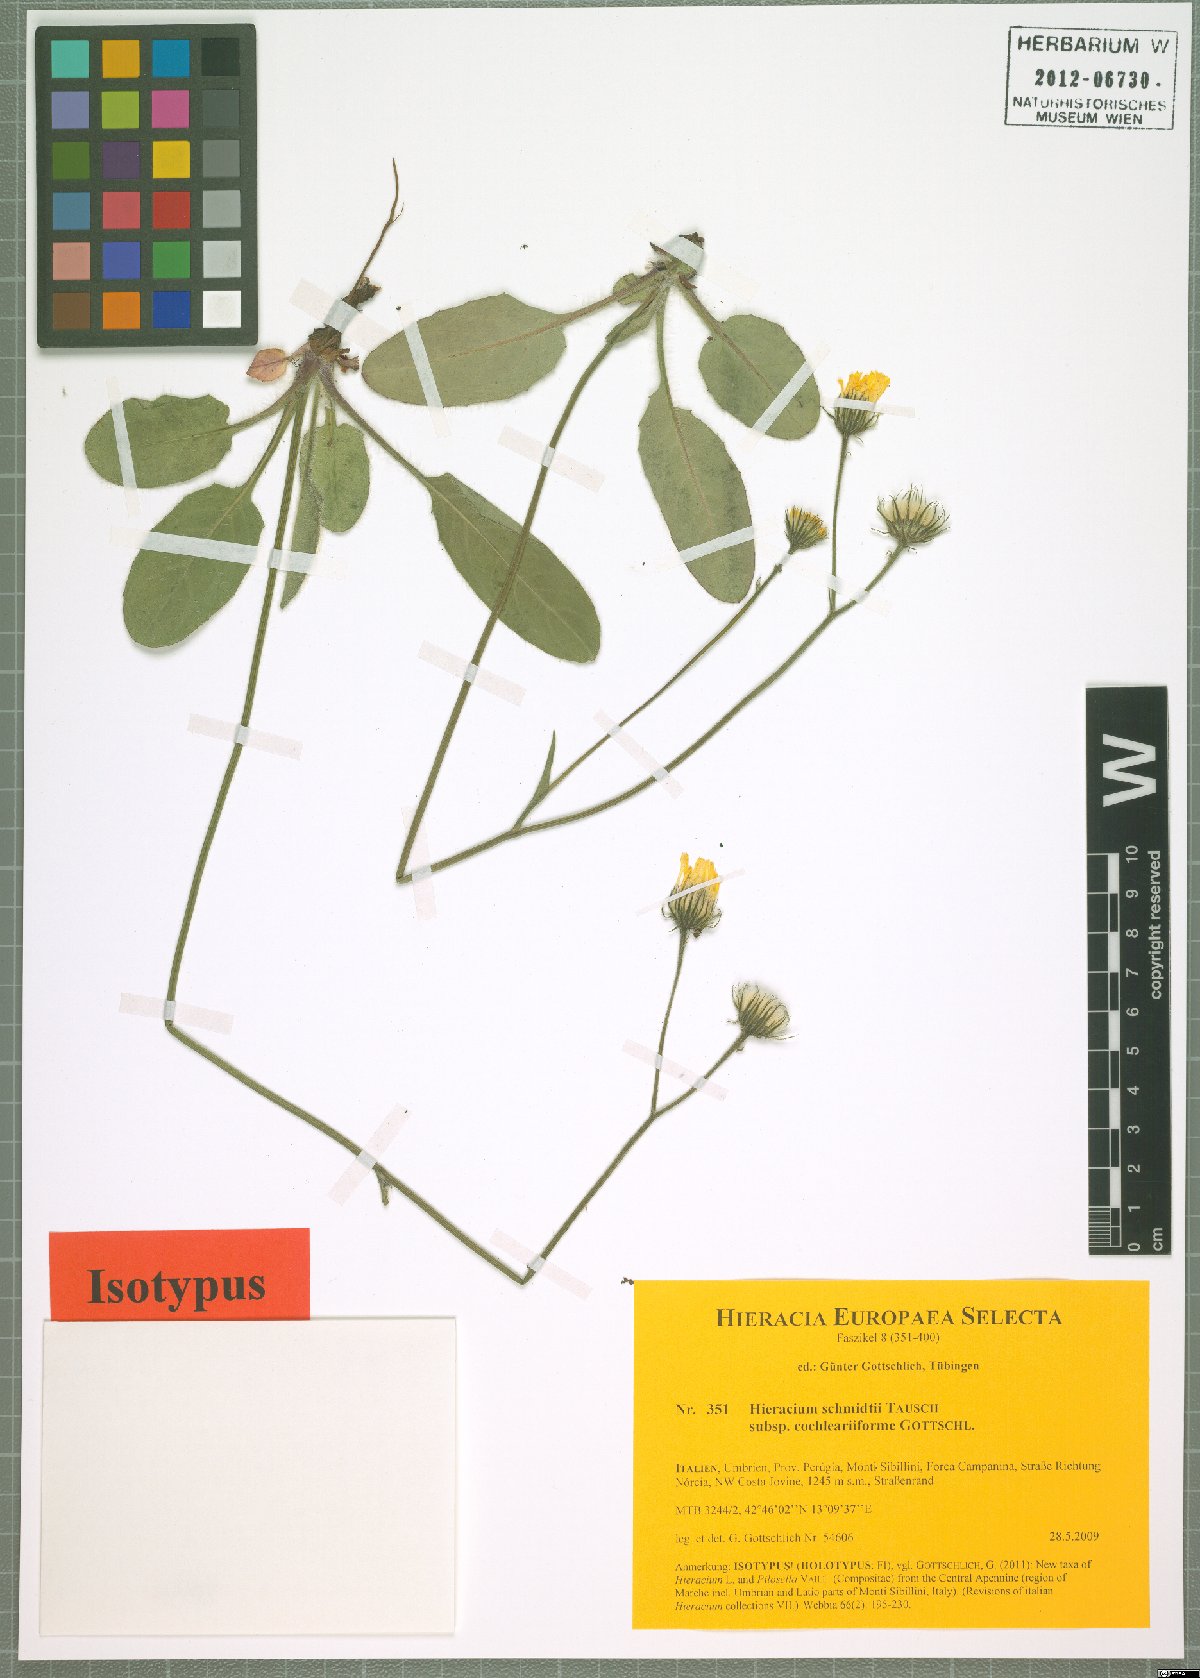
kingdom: Plantae
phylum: Tracheophyta
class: Magnoliopsida
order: Asterales
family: Asteraceae
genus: Hieracium
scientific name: Hieracium schmidtii
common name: Schmidt's hawkweed
